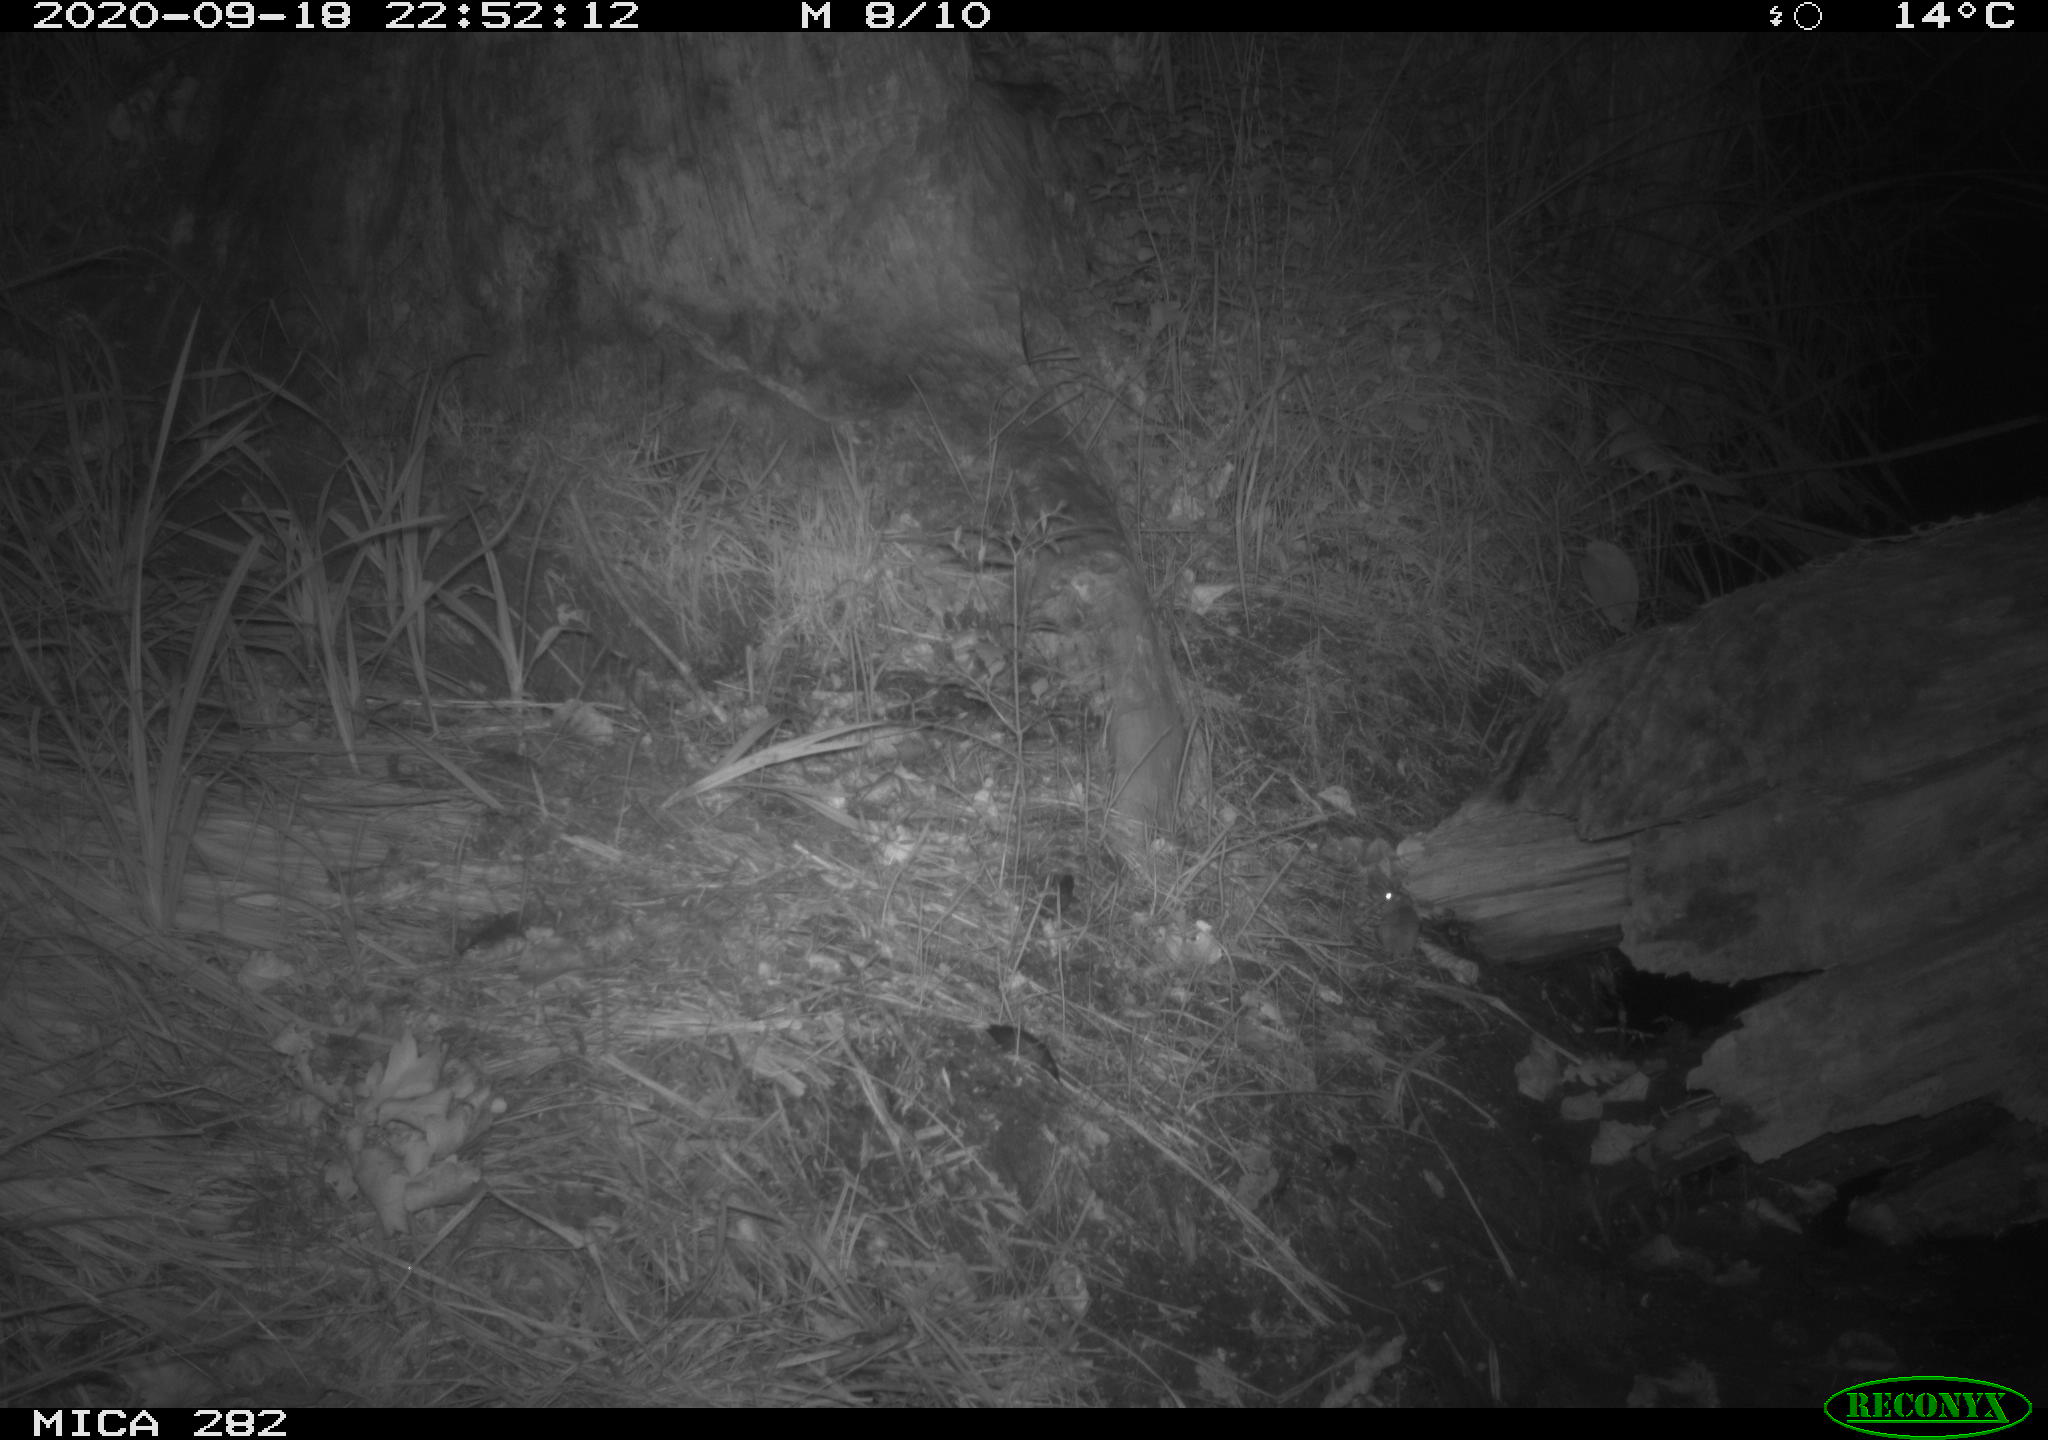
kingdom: Animalia
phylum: Chordata
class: Mammalia
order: Soricomorpha
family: Soricidae
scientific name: Soricidae
